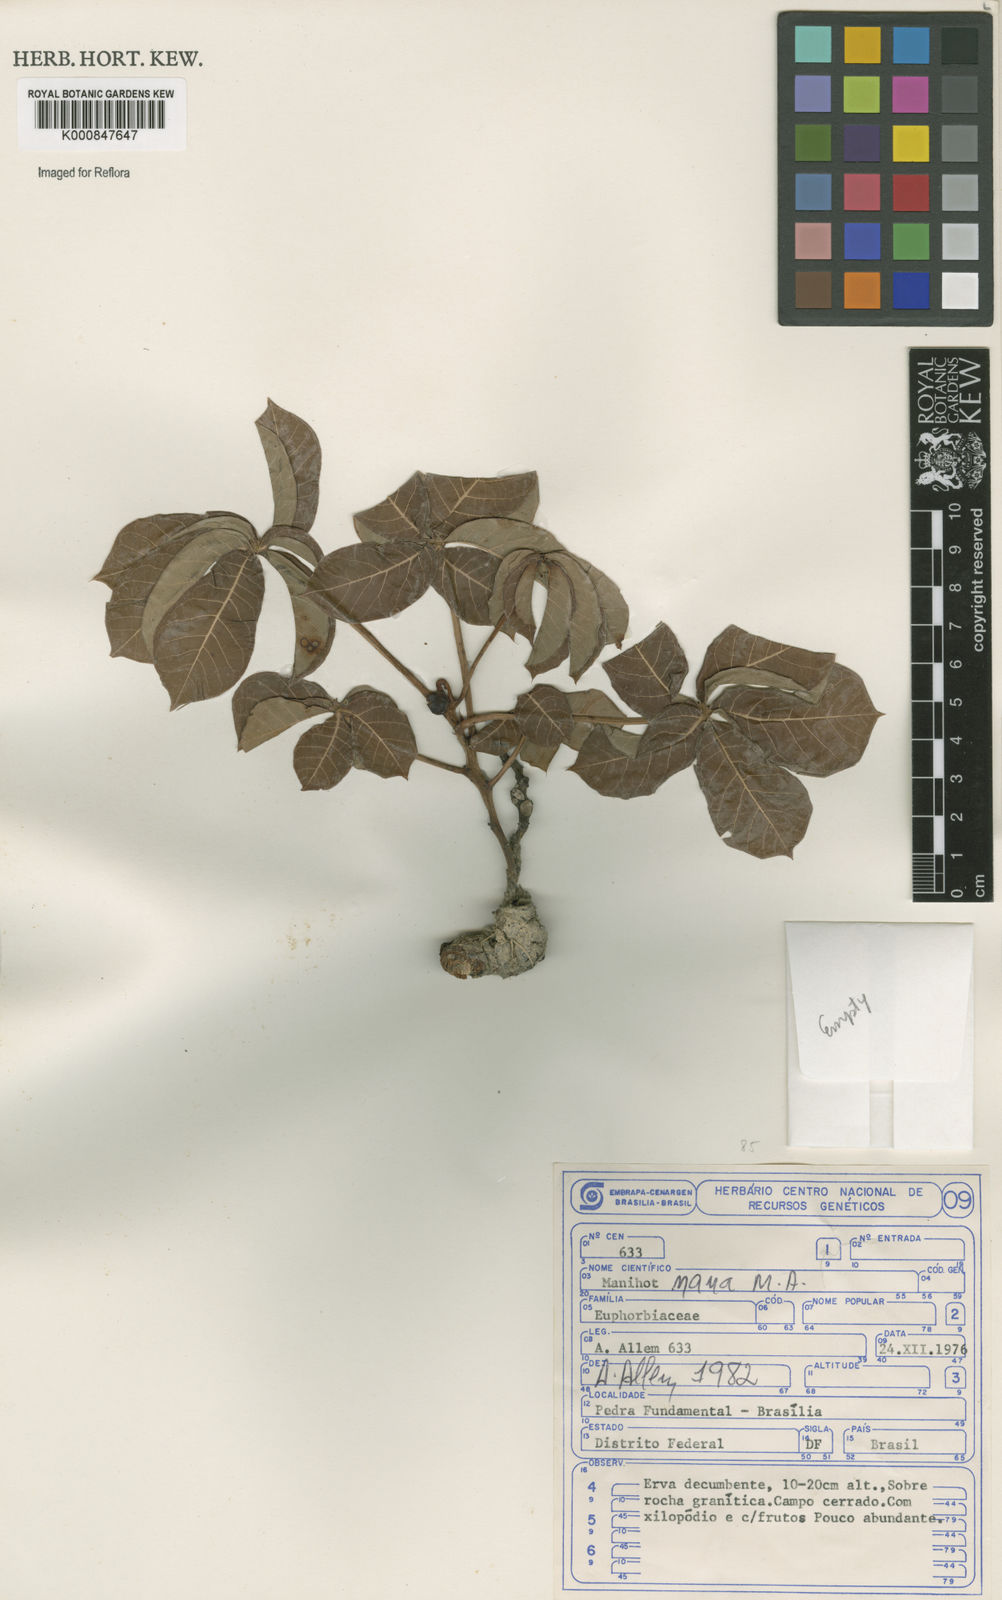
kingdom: Plantae
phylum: Tracheophyta
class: Magnoliopsida
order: Malpighiales
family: Euphorbiaceae
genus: Manihot
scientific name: Manihot
